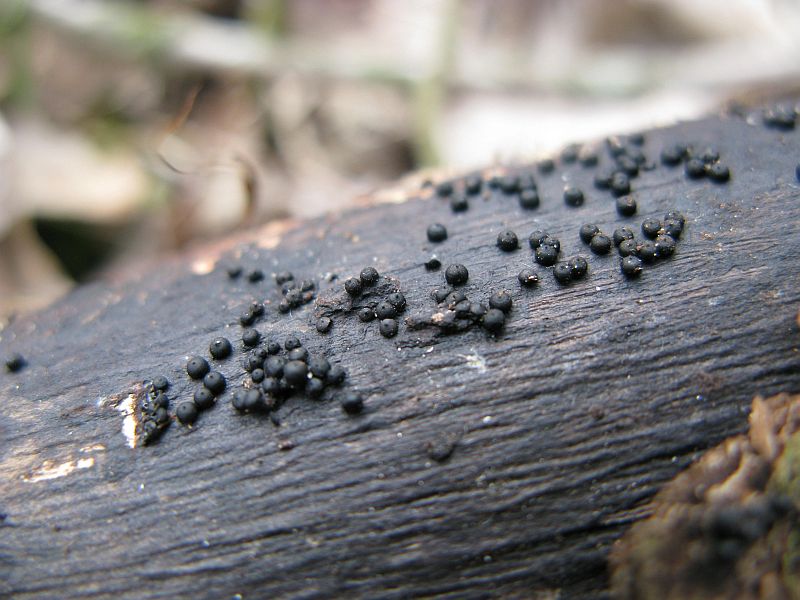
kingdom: Fungi
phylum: Ascomycota
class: Sordariomycetes
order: Xylariales
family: Xylariaceae
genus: Rosellinia
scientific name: Rosellinia marcucciana
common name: måtteløs kulkaviar
